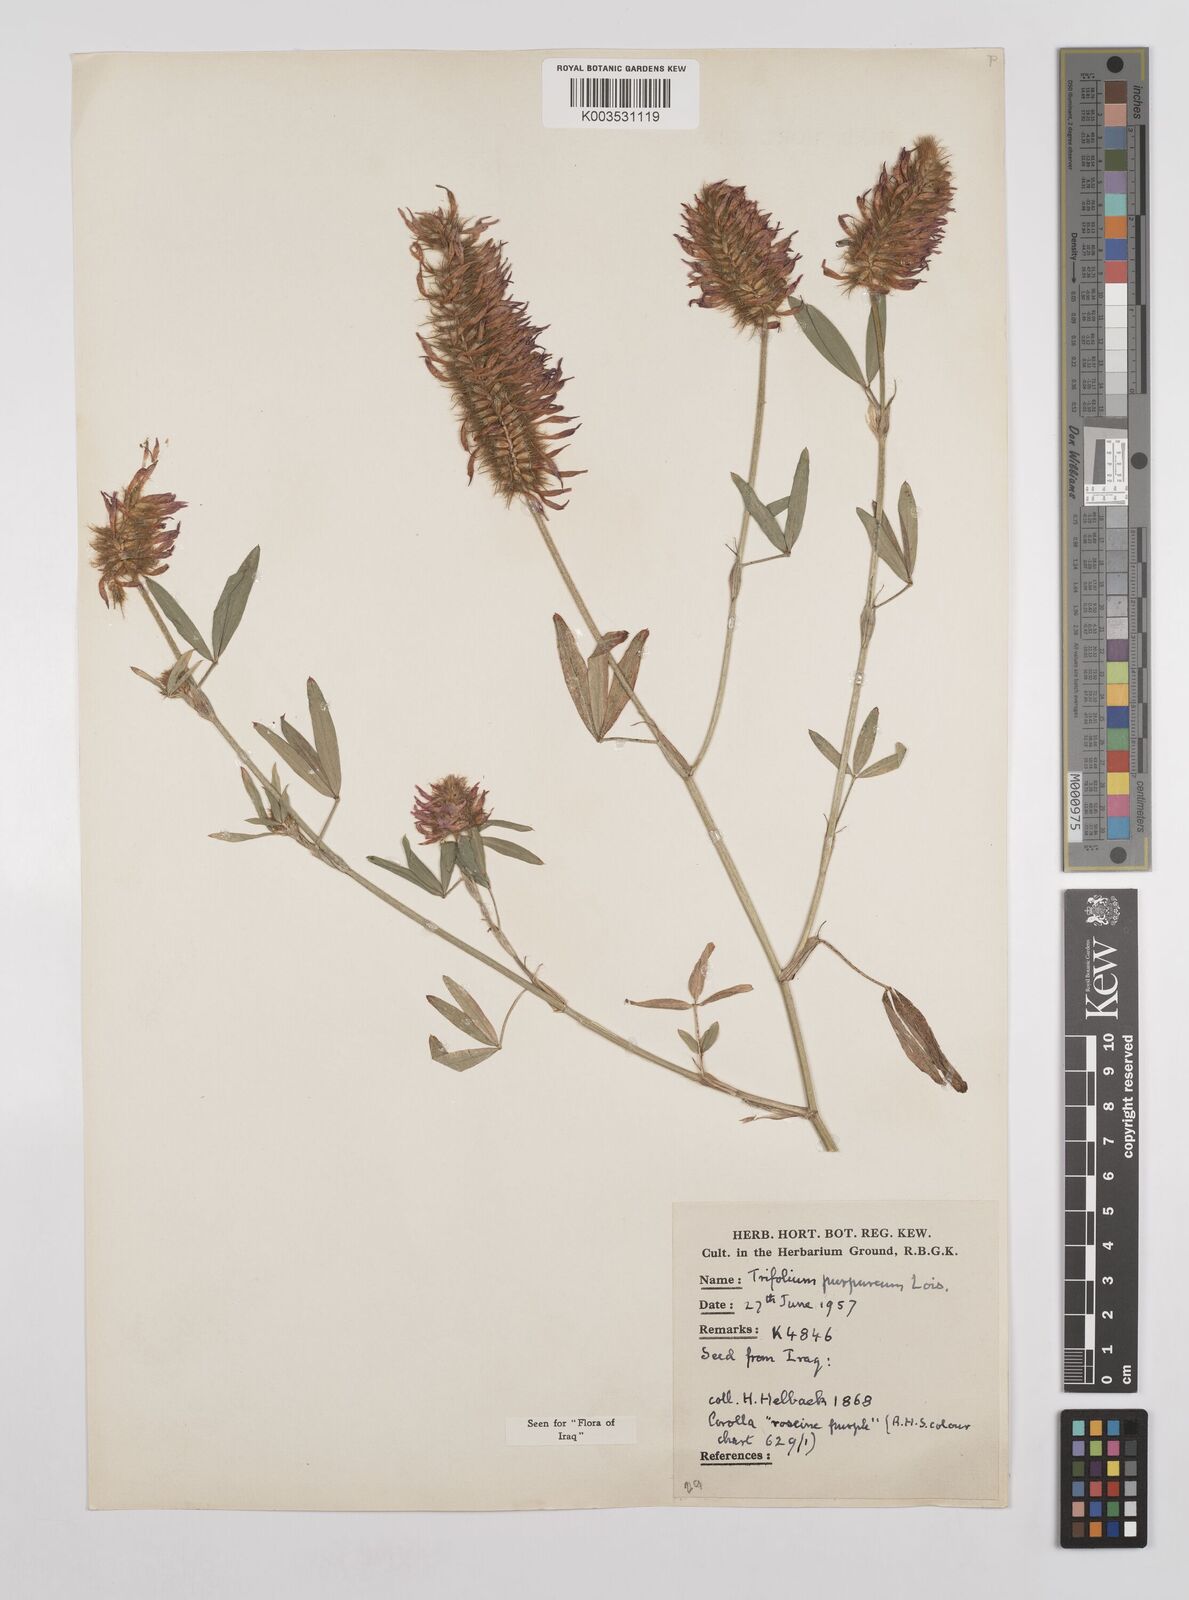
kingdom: Plantae
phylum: Tracheophyta
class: Magnoliopsida
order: Fabales
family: Fabaceae
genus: Trifolium
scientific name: Trifolium purpureum
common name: Purple clover
